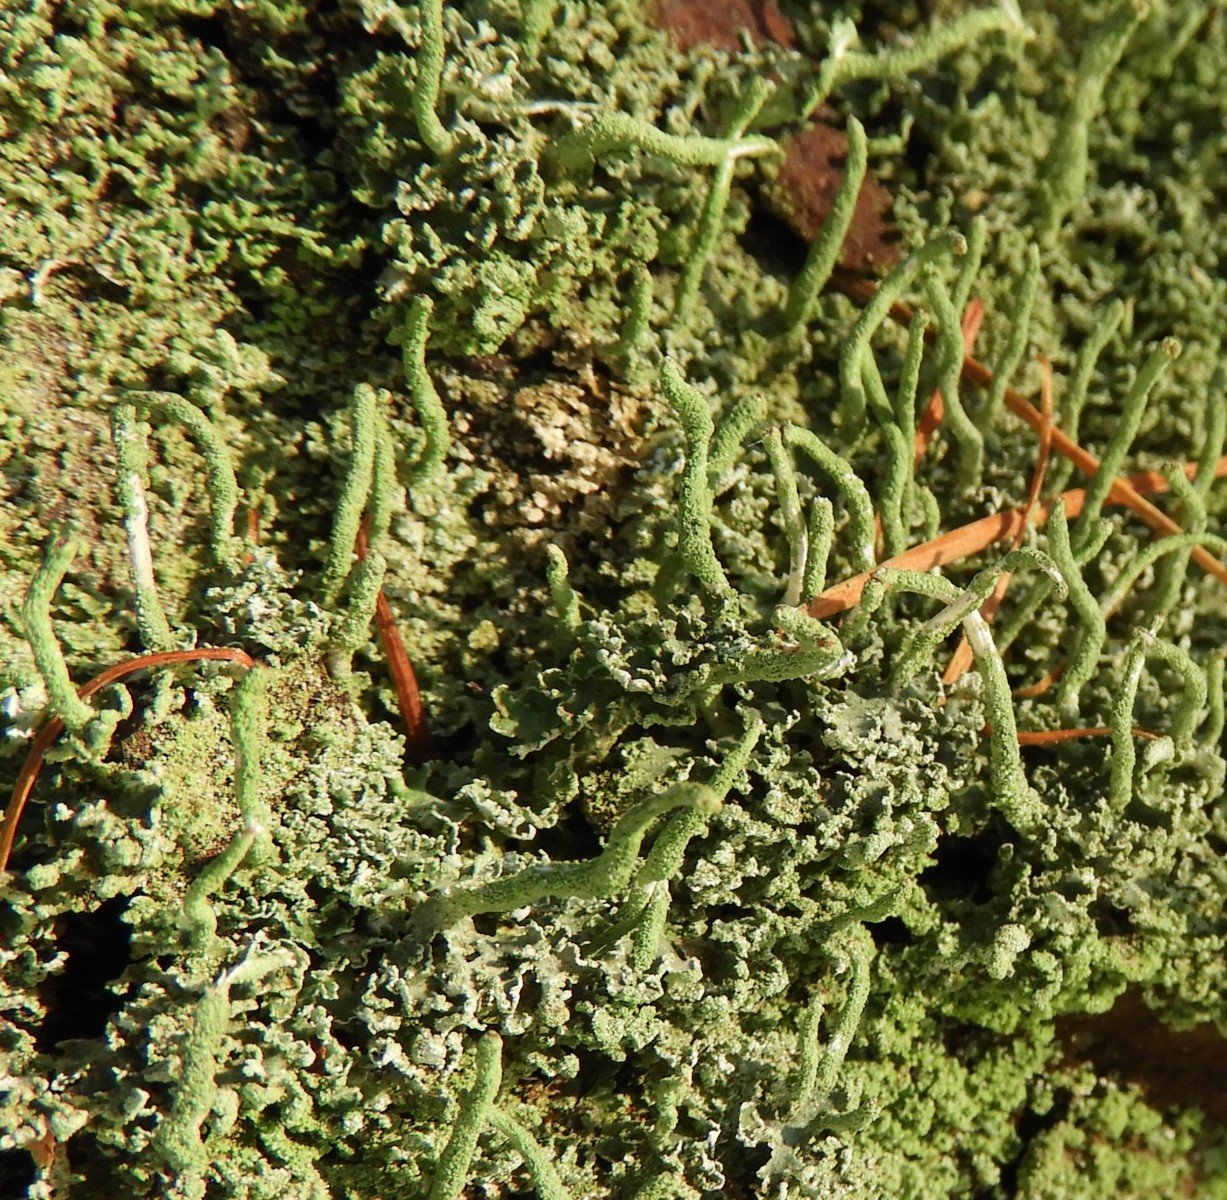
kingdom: Fungi
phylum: Ascomycota
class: Lecanoromycetes
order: Lecanorales
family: Cladoniaceae
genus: Cladonia
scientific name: Cladonia ochrochlora
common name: stød-bægerlav
